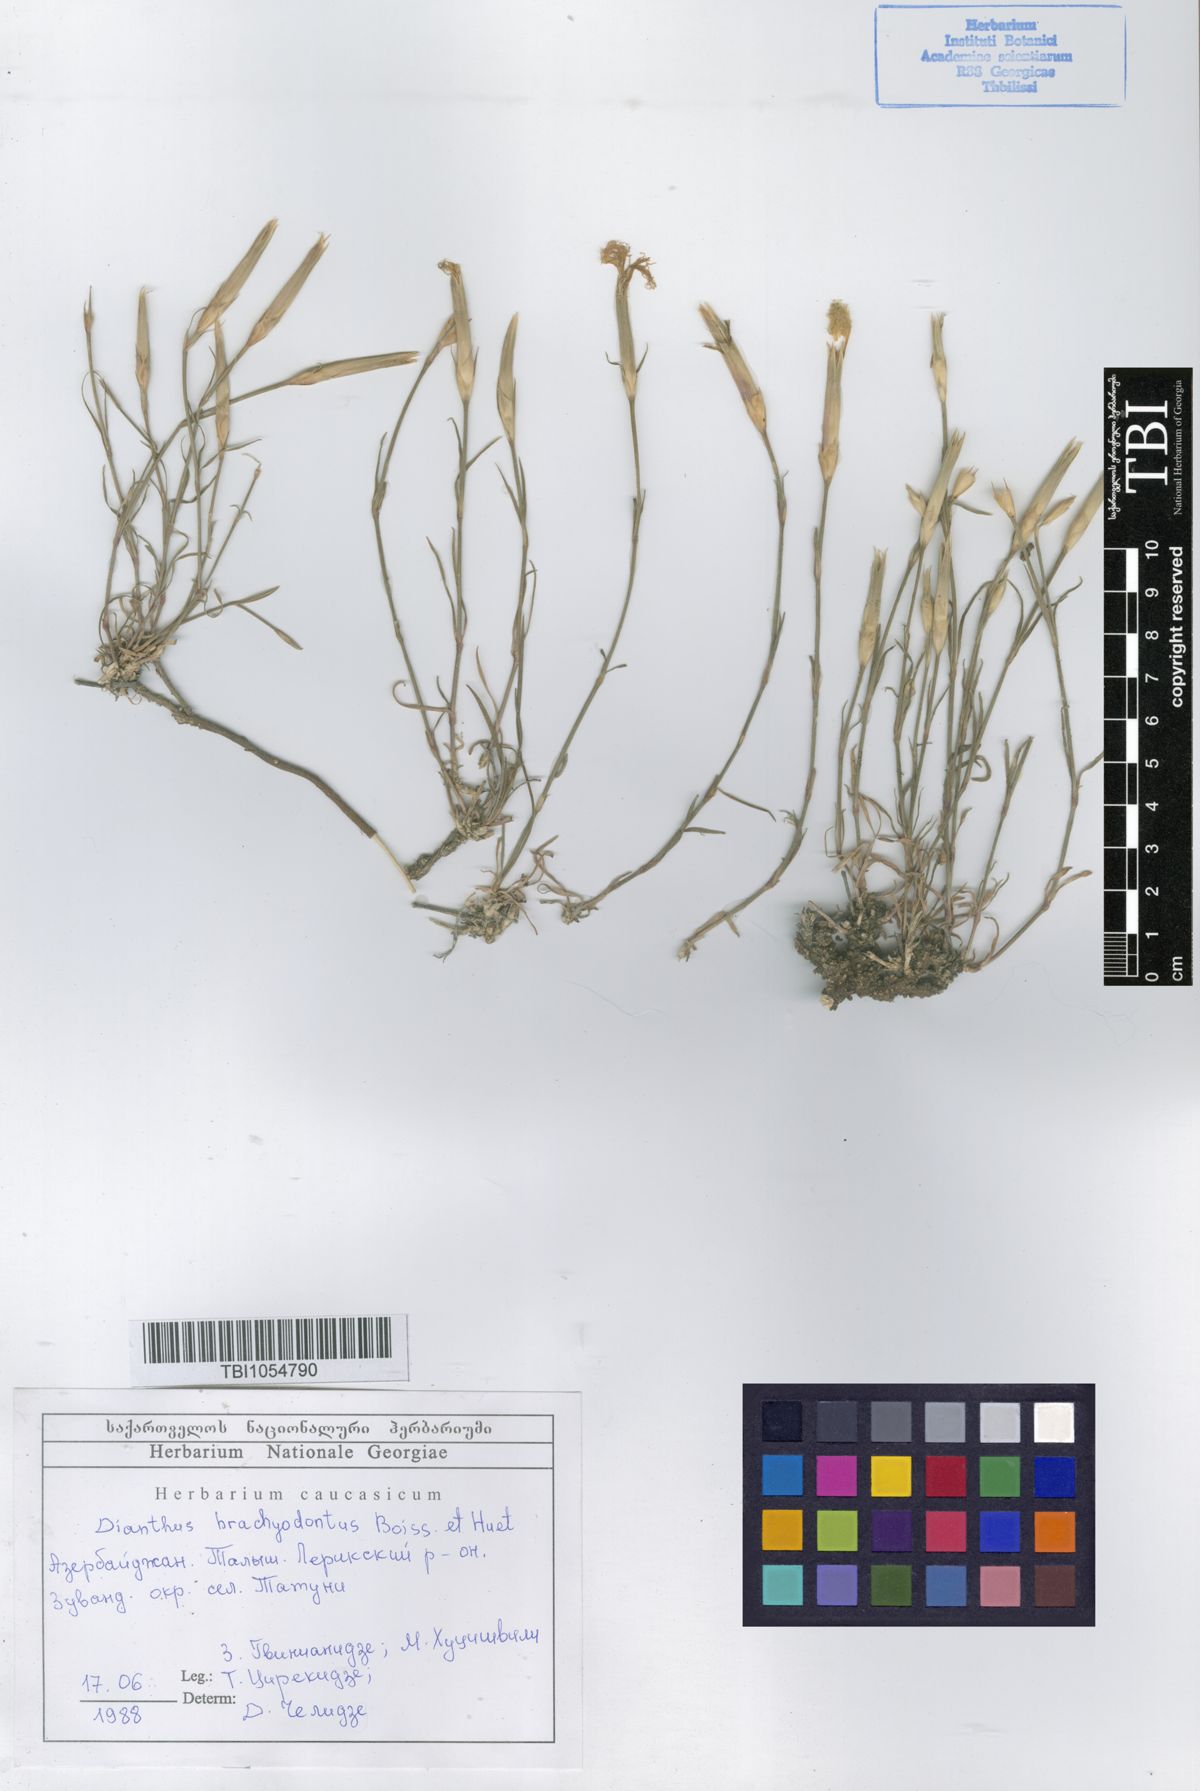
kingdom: Plantae
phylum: Tracheophyta
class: Magnoliopsida
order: Caryophyllales
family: Caryophyllaceae
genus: Dianthus
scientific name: Dianthus
